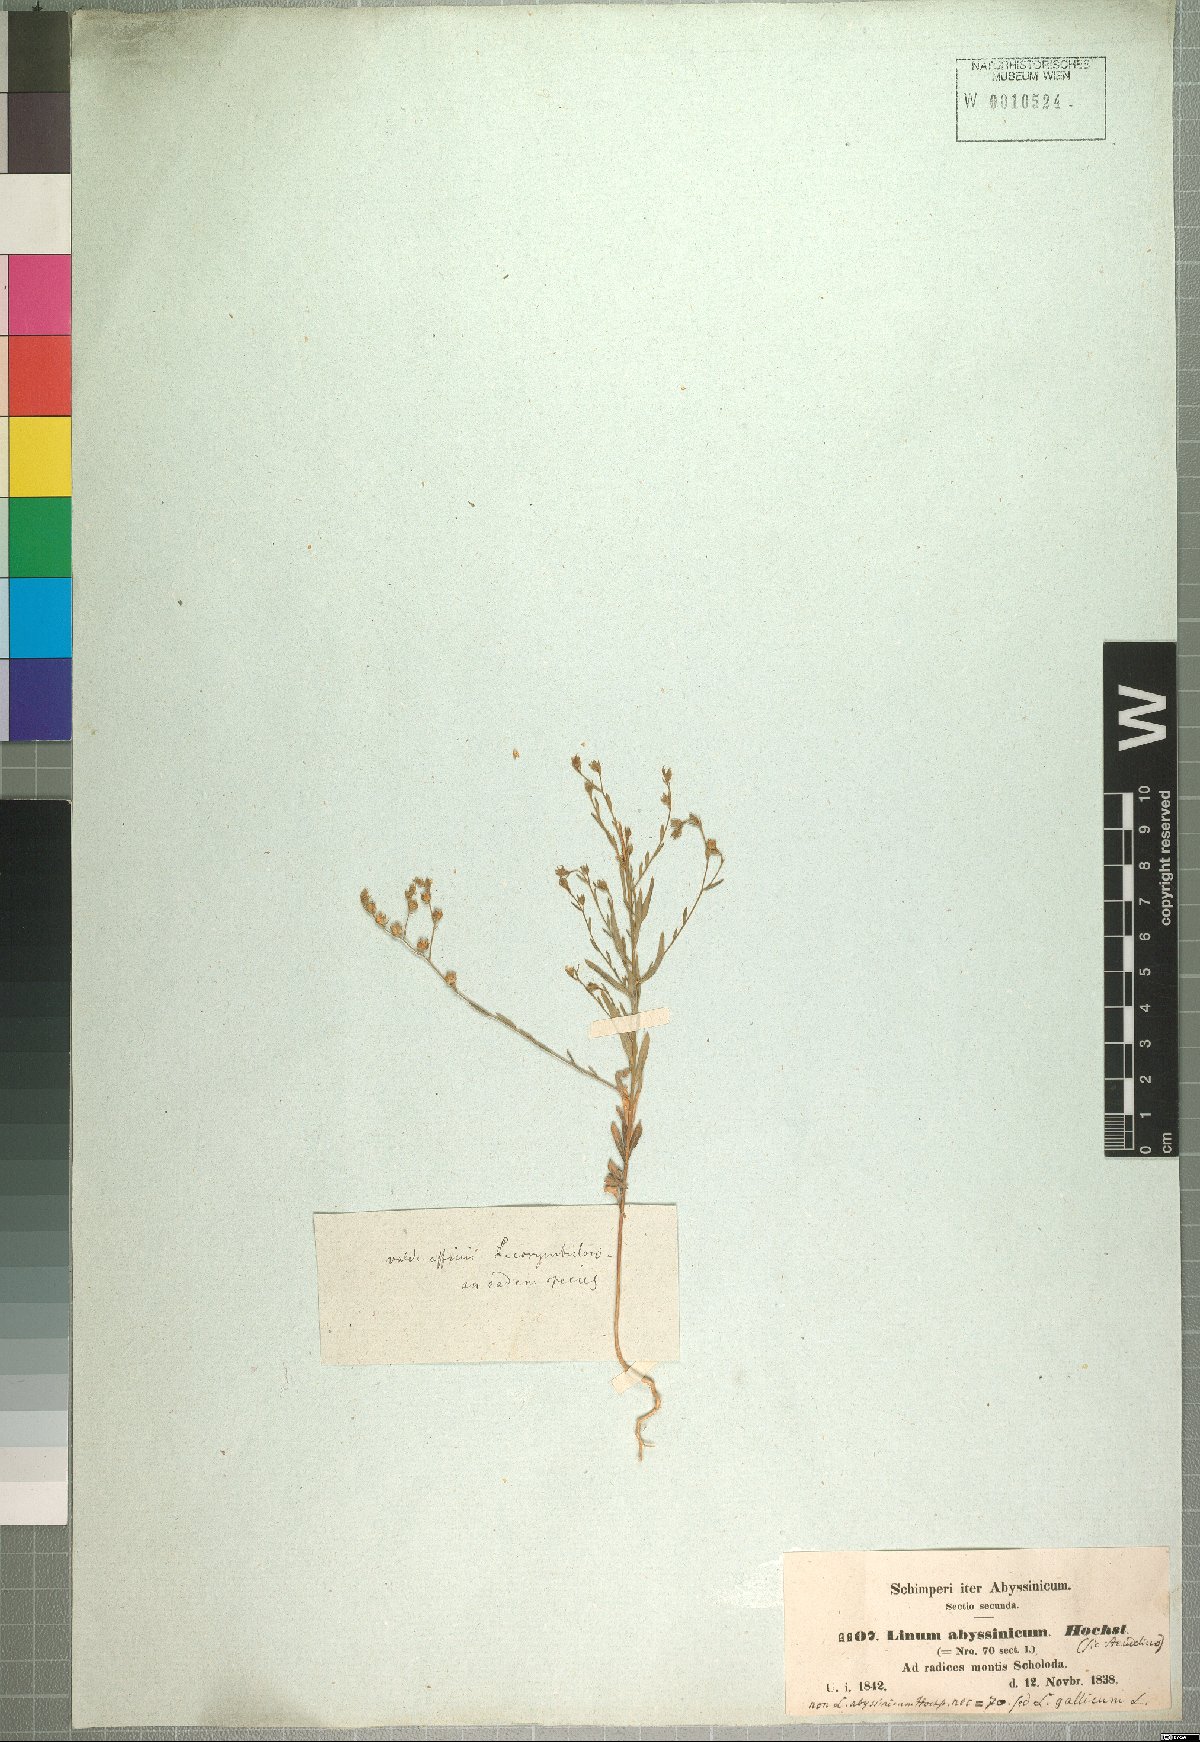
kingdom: Plantae
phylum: Tracheophyta
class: Magnoliopsida
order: Malpighiales
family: Linaceae
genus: Linum
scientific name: Linum trigynum
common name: French flax
